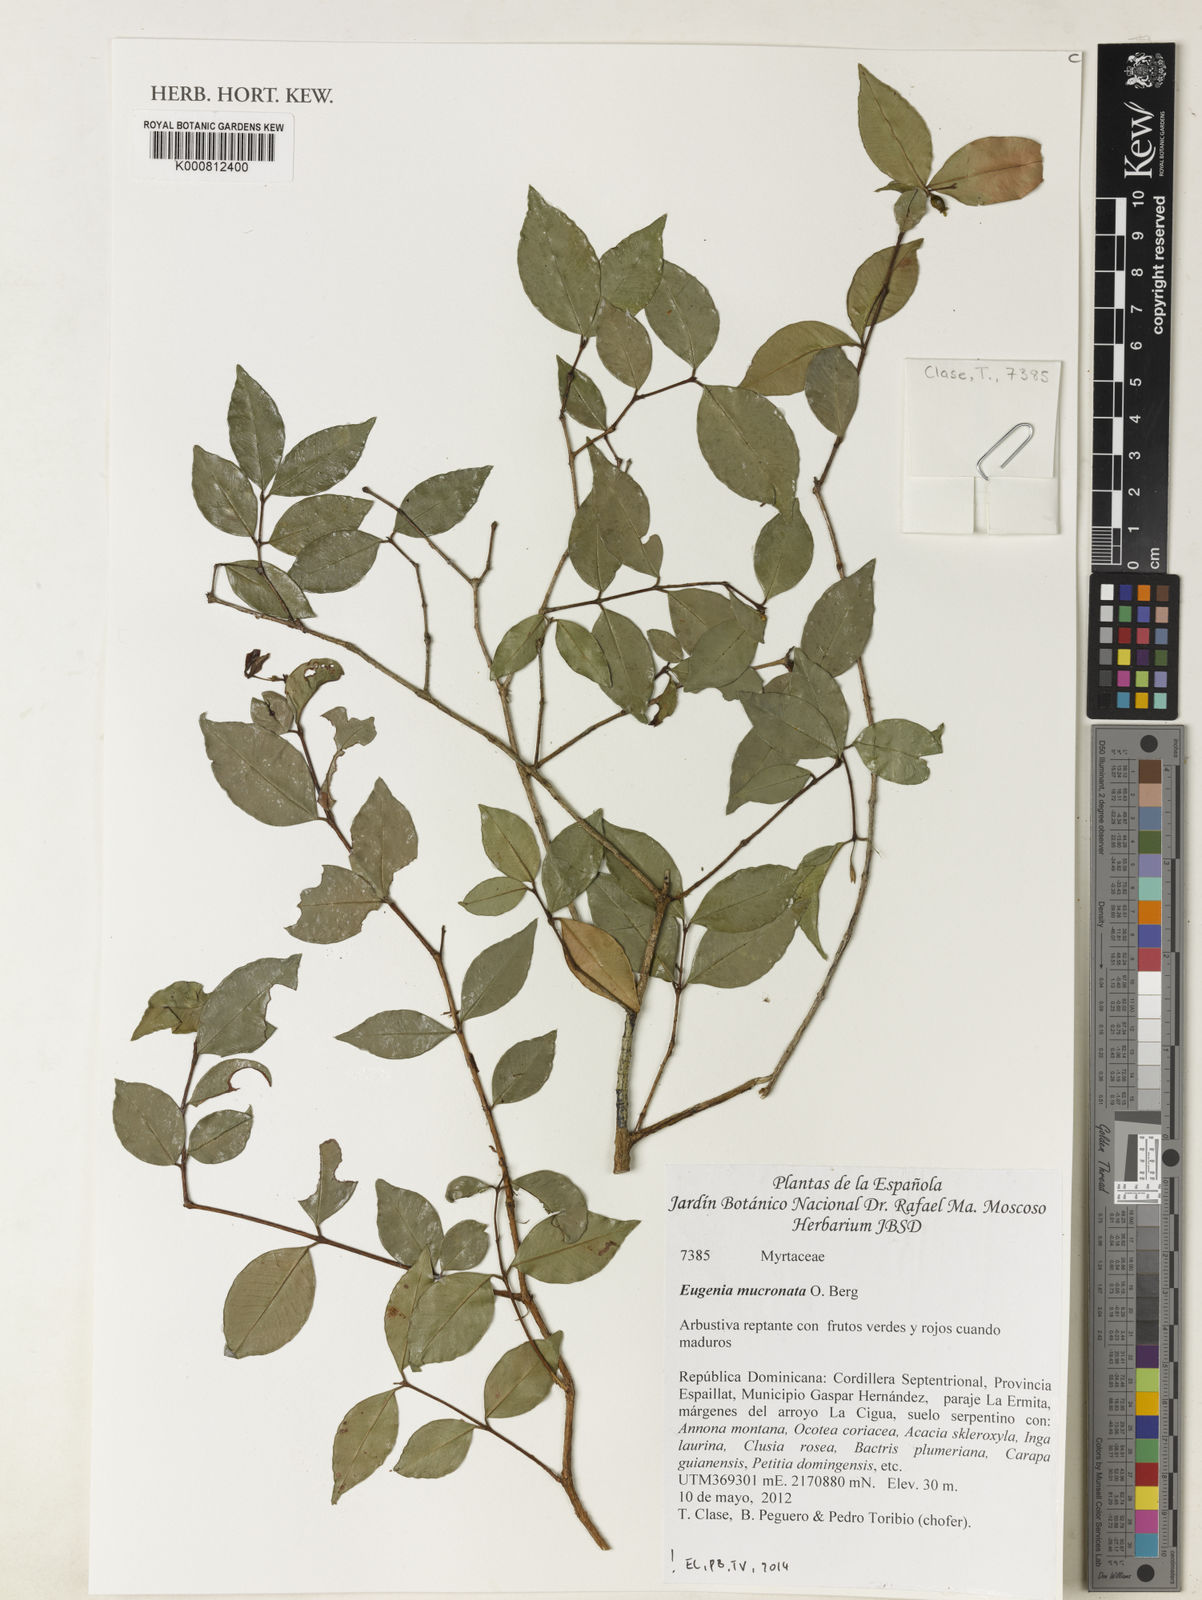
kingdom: Plantae
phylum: Tracheophyta
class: Magnoliopsida
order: Myrtales
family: Myrtaceae
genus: Eugenia
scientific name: Eugenia mucronata
